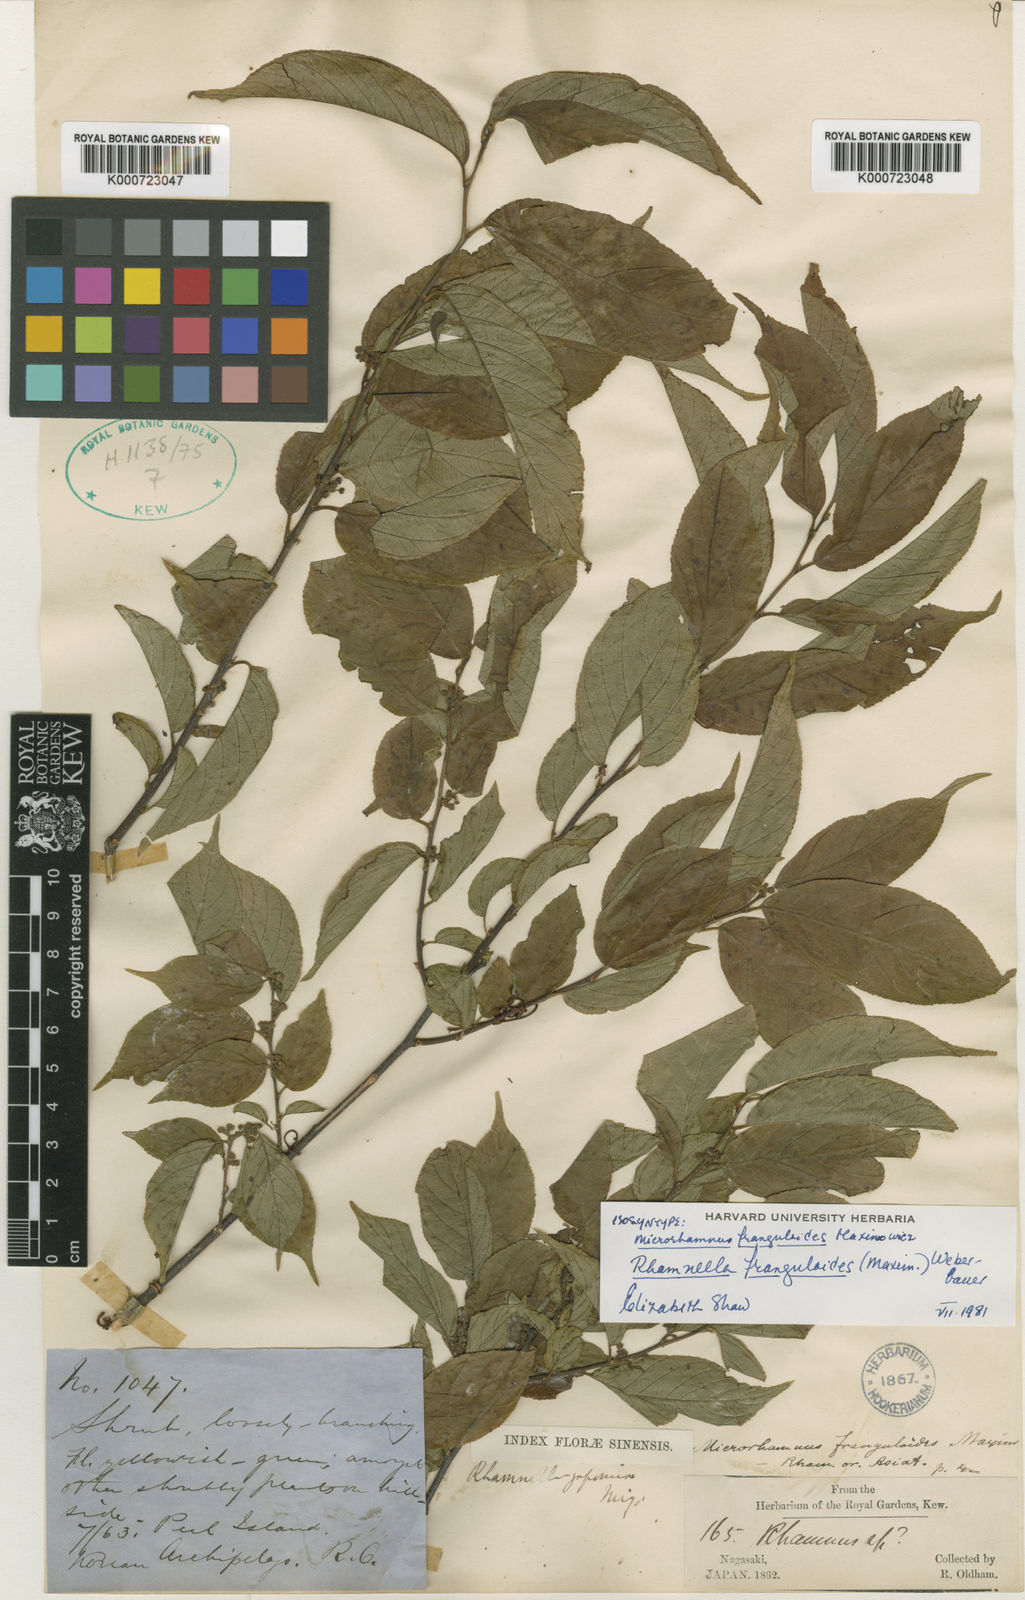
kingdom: Plantae
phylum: Tracheophyta
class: Magnoliopsida
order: Rosales
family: Rhamnaceae
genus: Rhamnella
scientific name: Rhamnella franguloides
